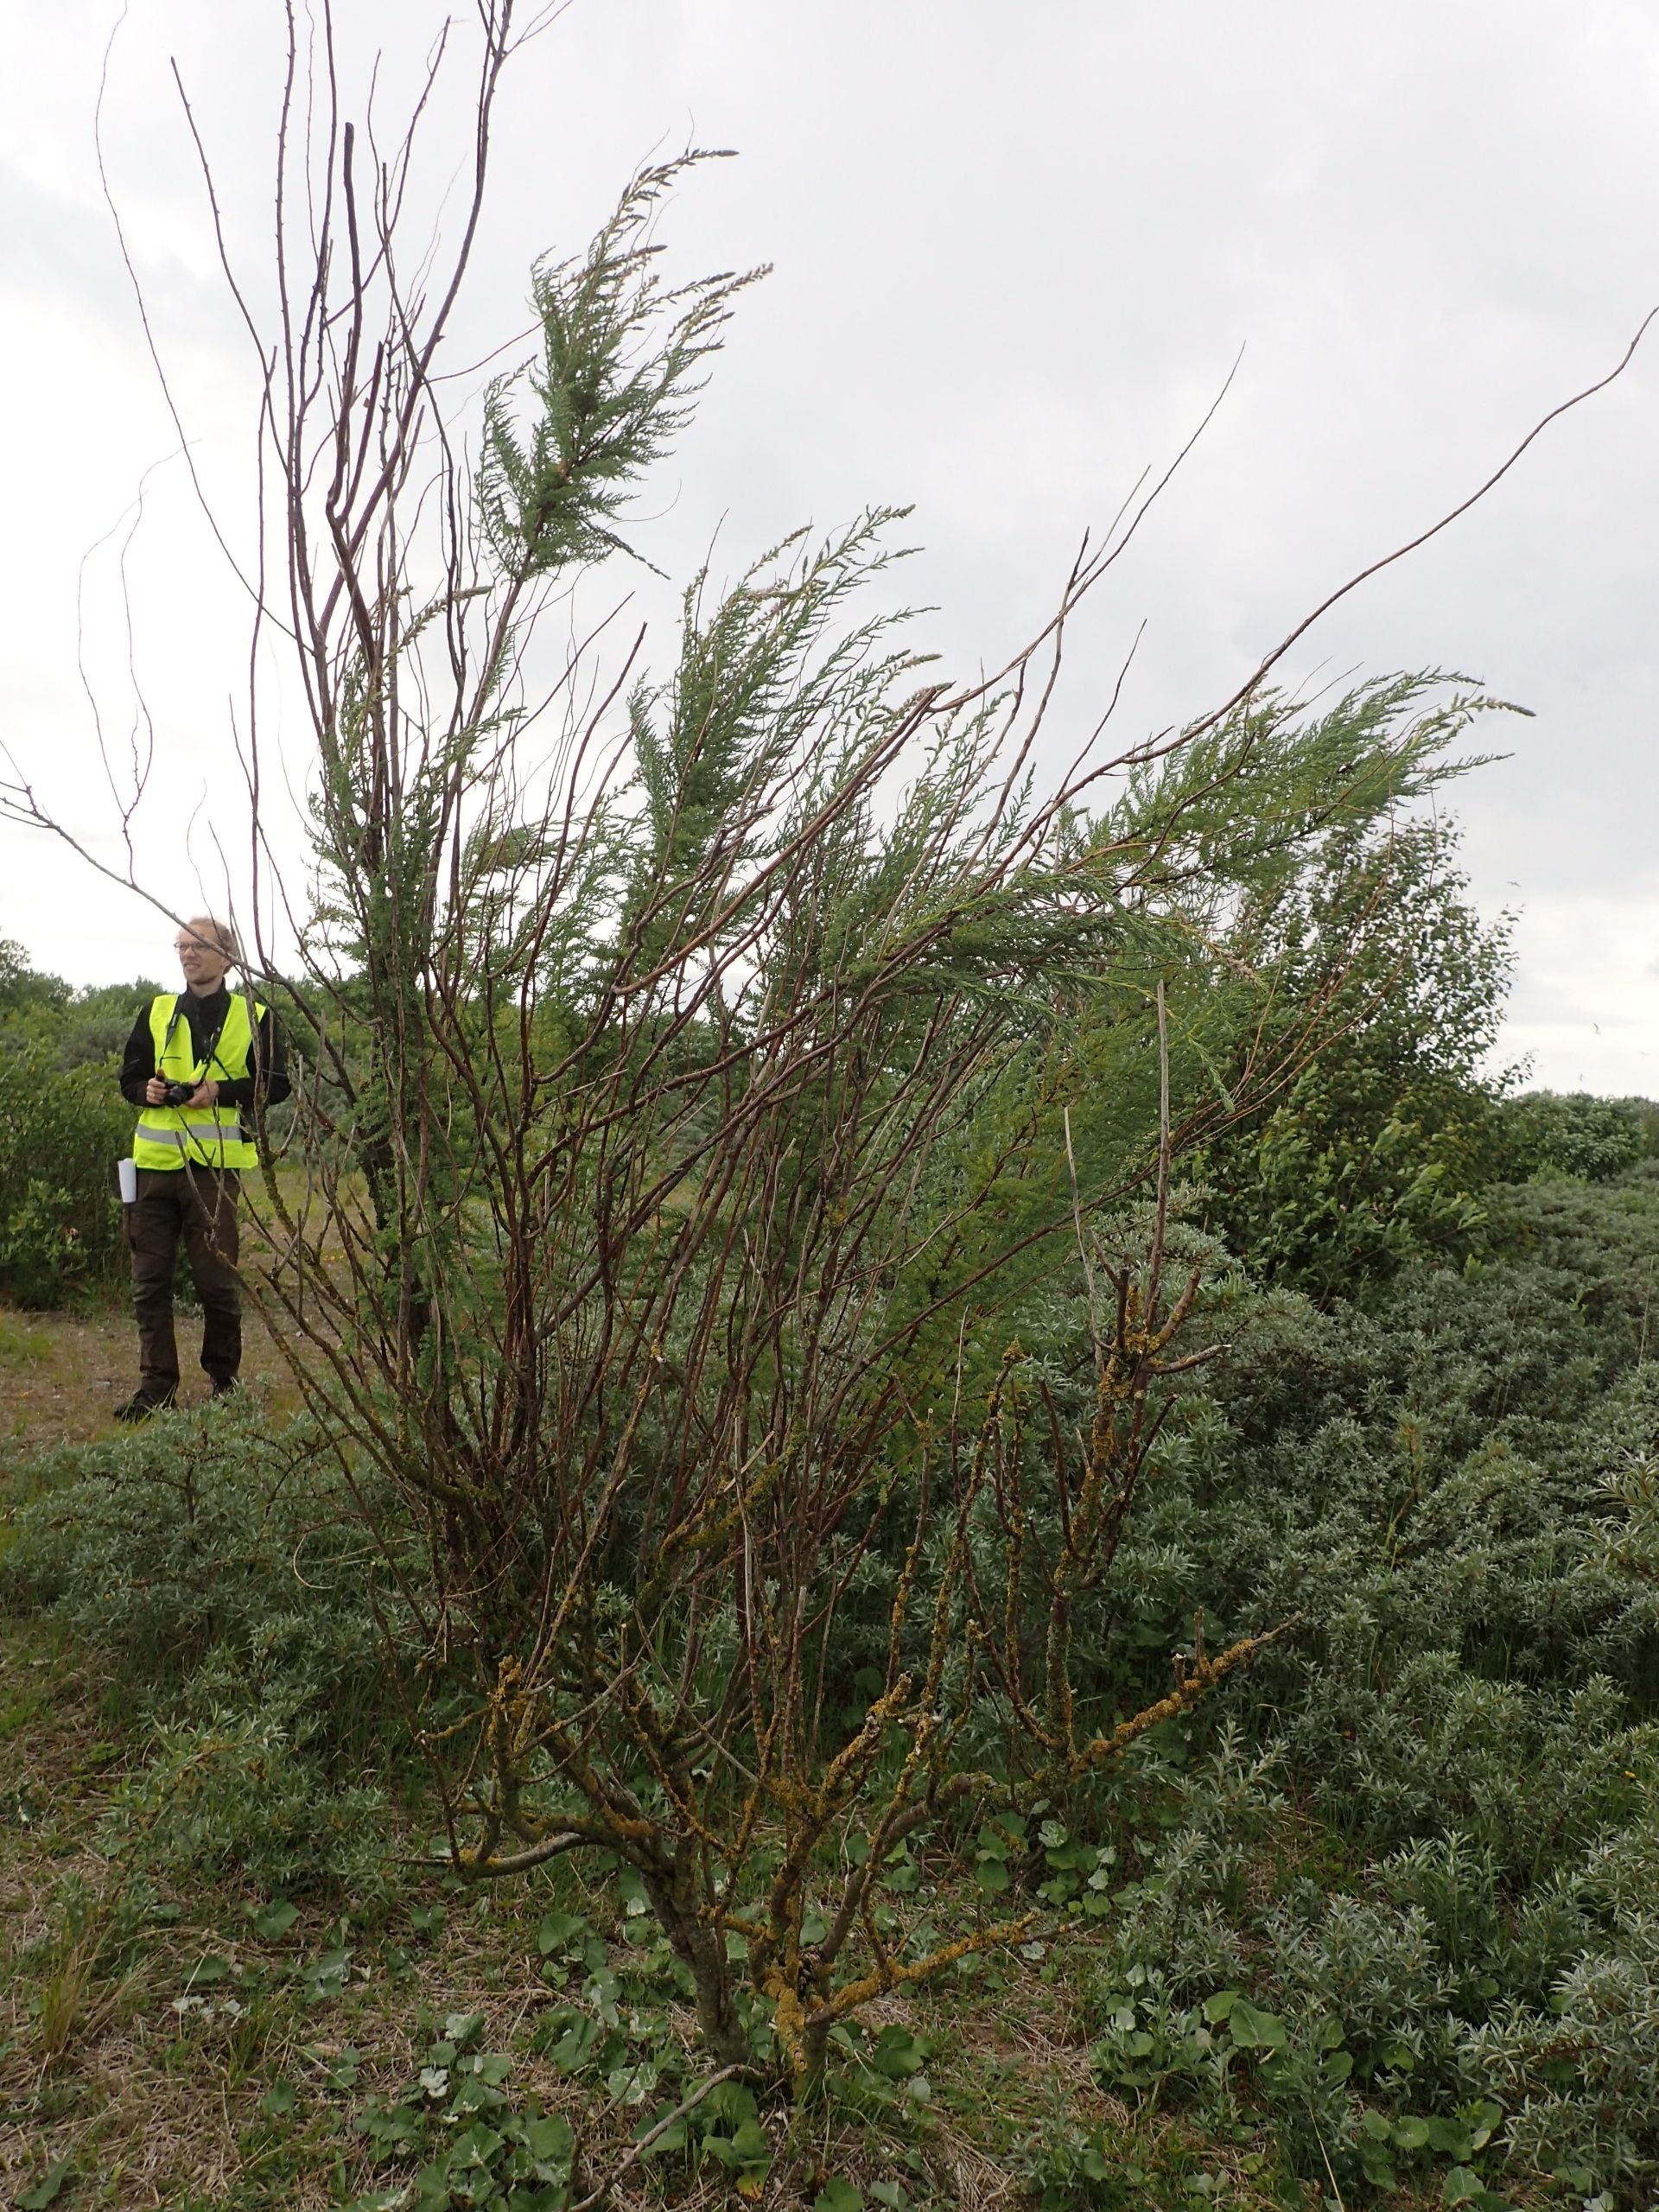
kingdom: Plantae
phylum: Tracheophyta
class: Magnoliopsida
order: Caryophyllales
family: Tamaricaceae
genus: Myricaria
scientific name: Myricaria germanica
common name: Tysk tamarisk
